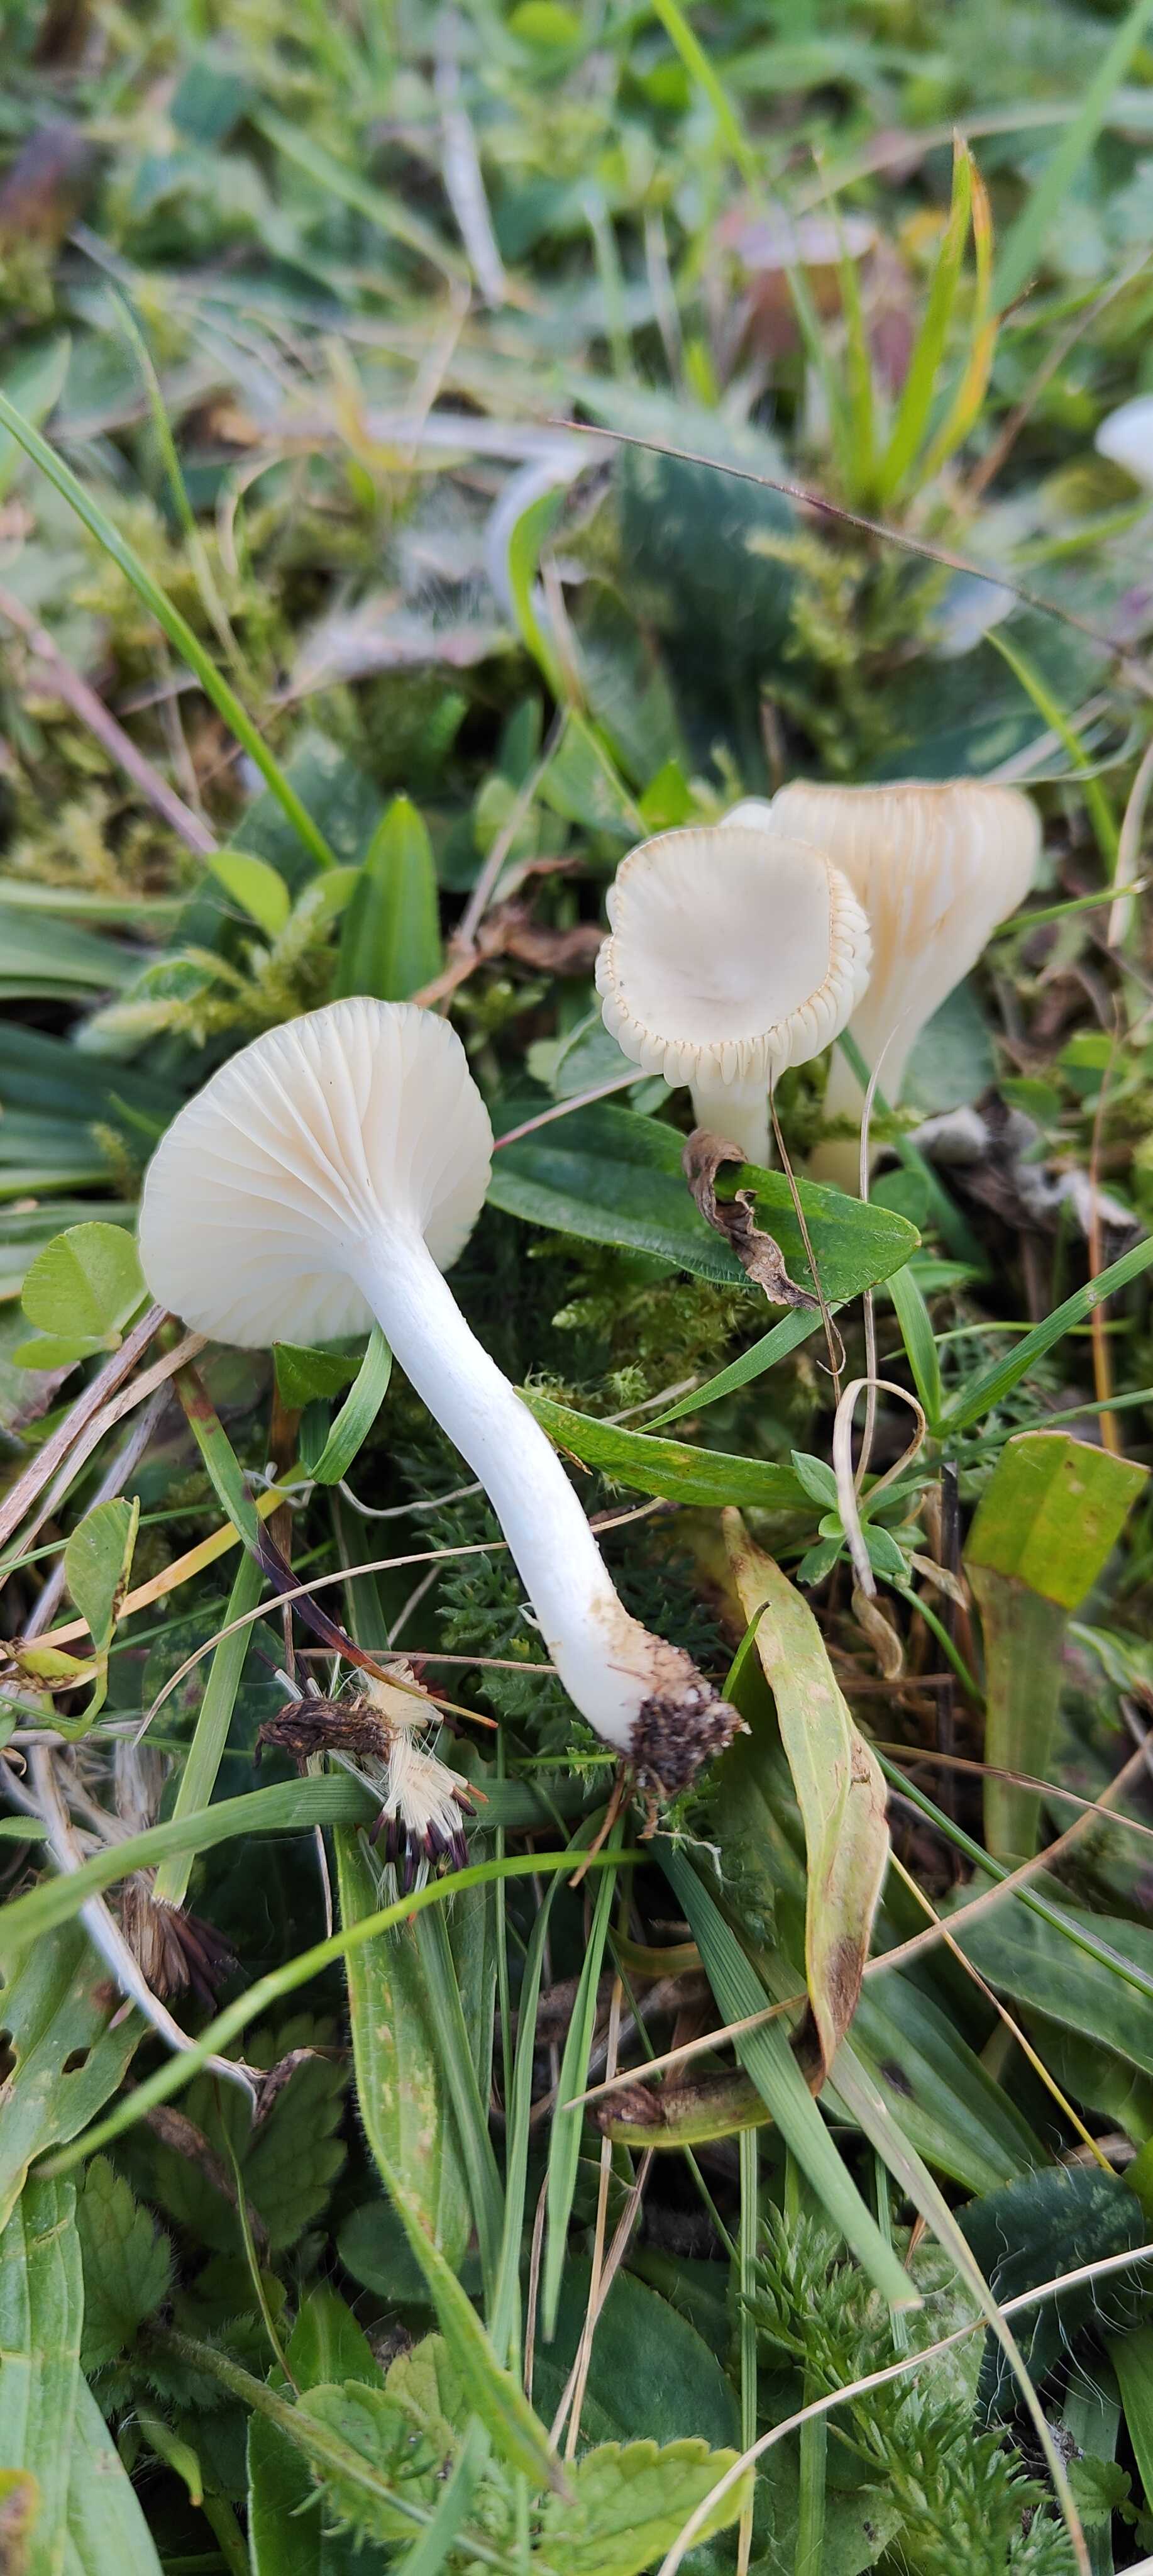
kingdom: Fungi
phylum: Basidiomycota
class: Agaricomycetes
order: Agaricales
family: Hygrophoraceae
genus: Cuphophyllus
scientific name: Cuphophyllus virgineus
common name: snehvid vokshat
